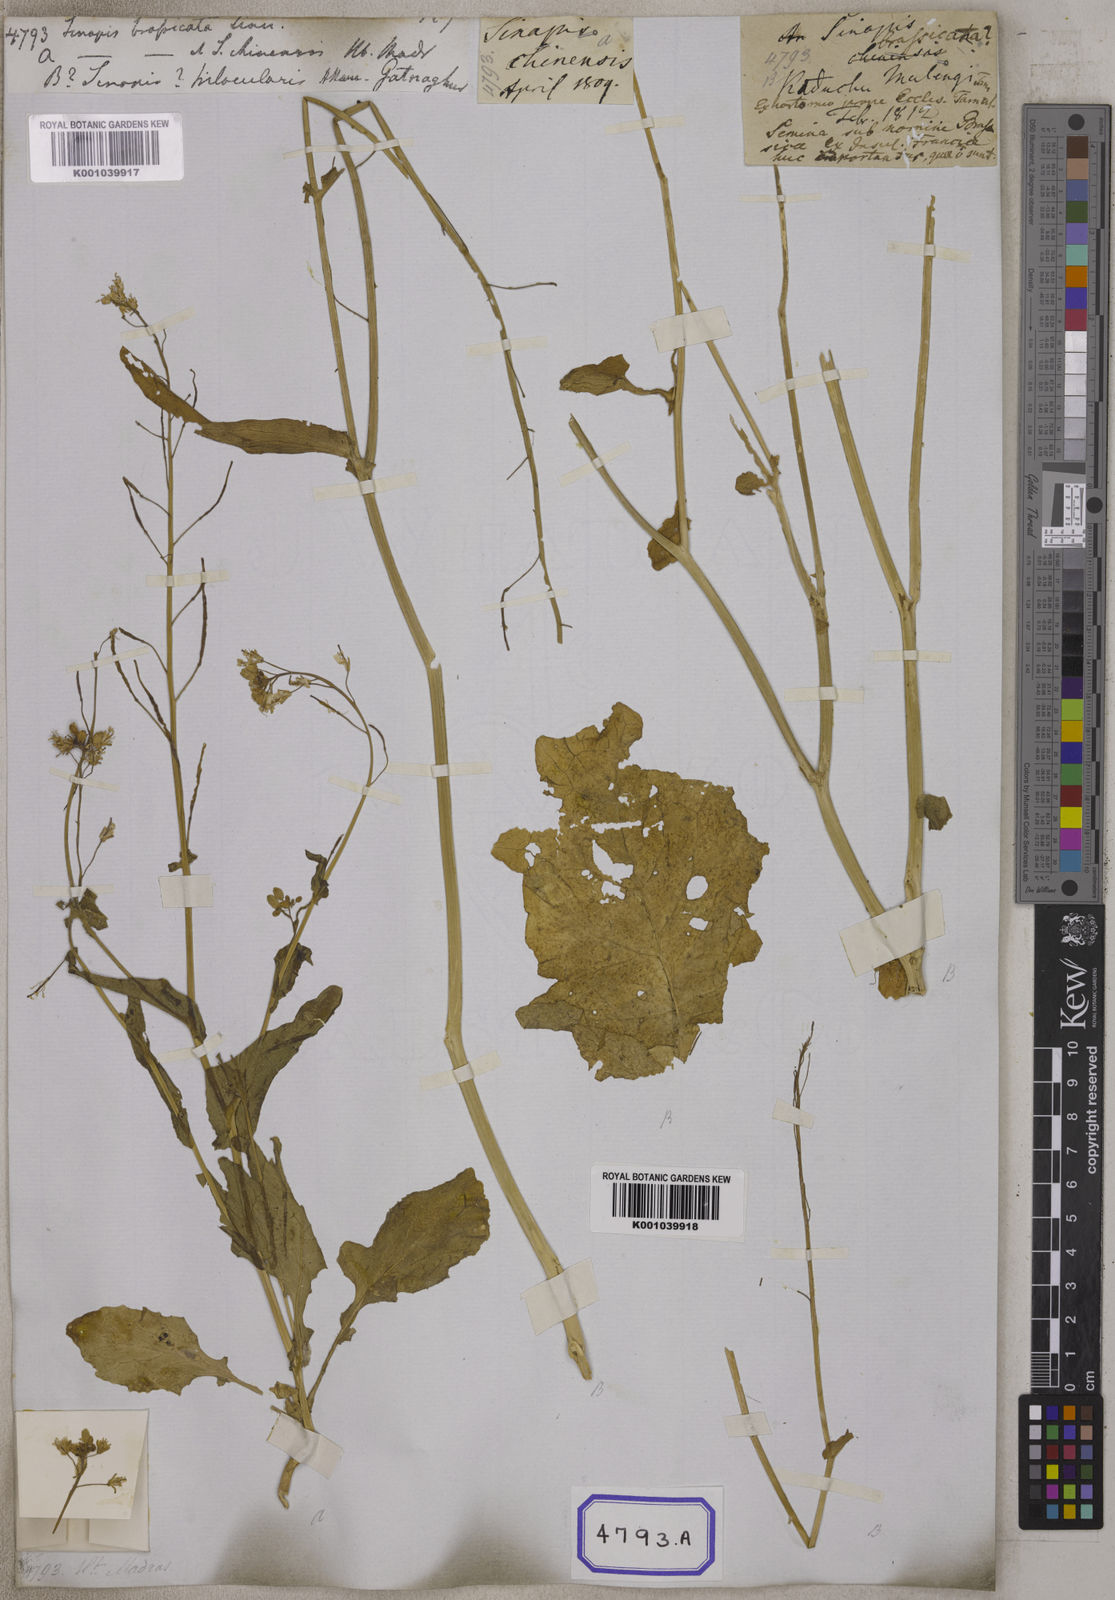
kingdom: Plantae
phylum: Tracheophyta
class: Magnoliopsida
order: Brassicales
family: Brassicaceae
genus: Sinapis
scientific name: Sinapis
